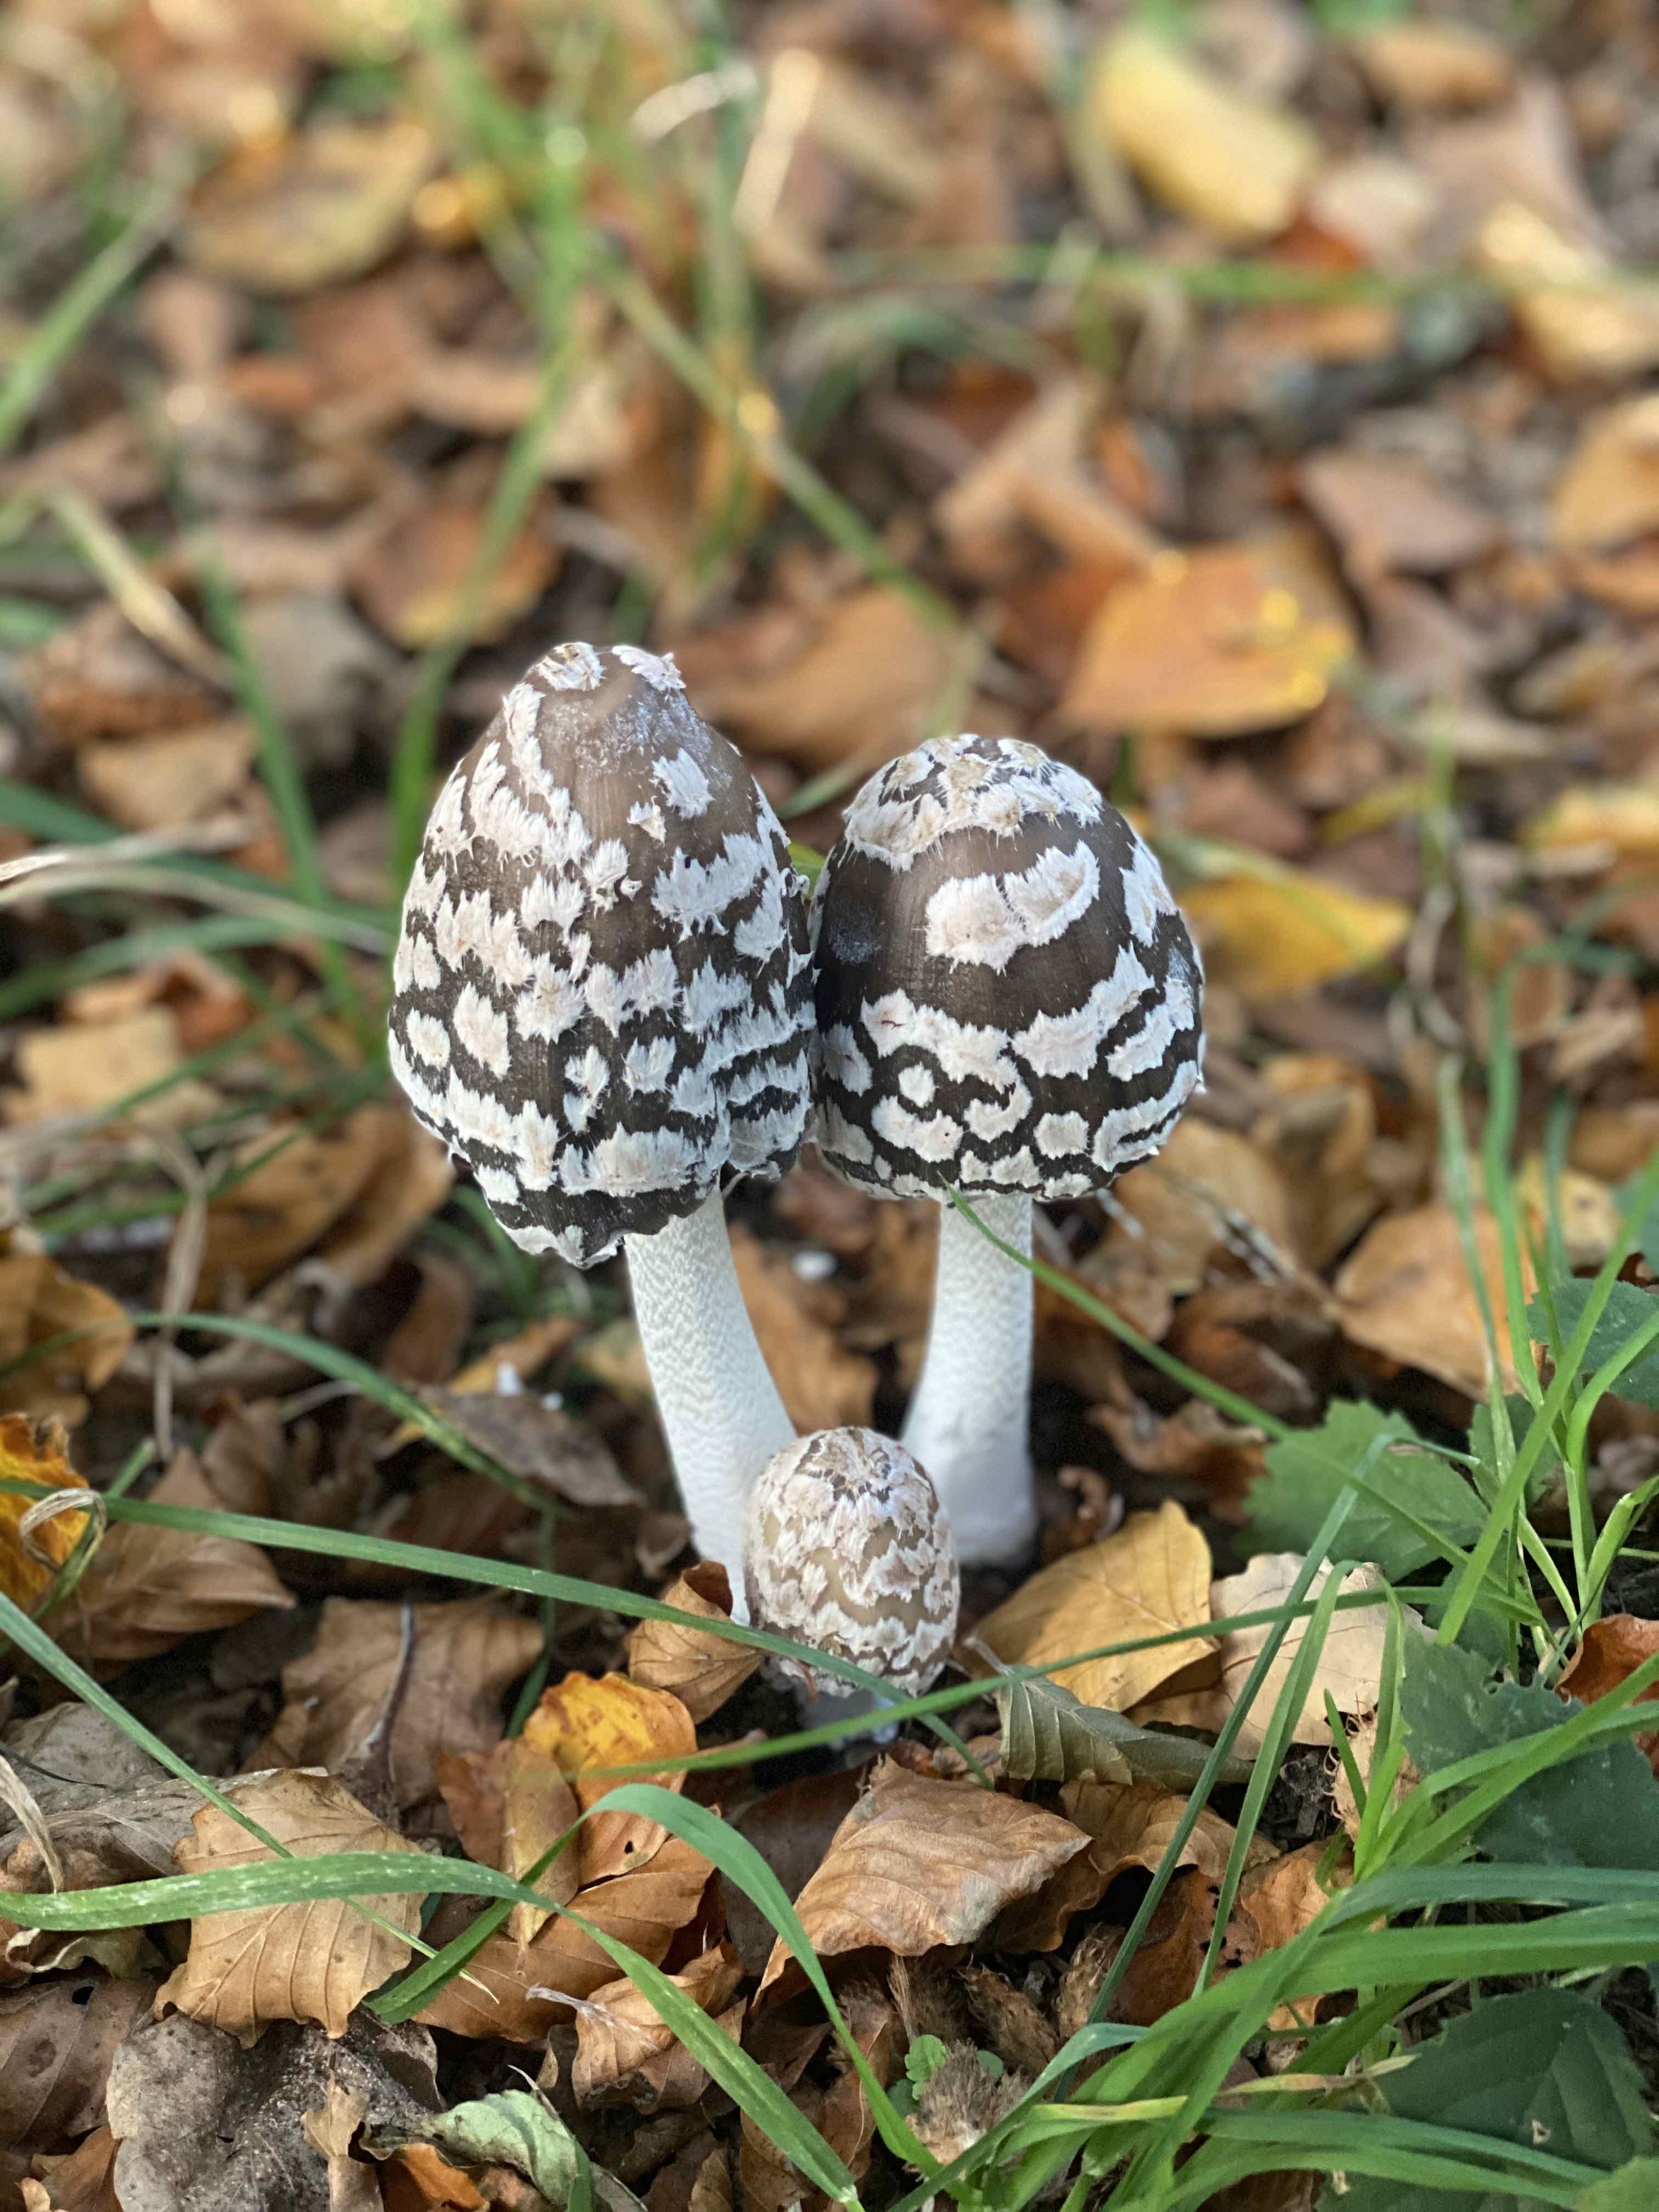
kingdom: Fungi
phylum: Basidiomycota
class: Agaricomycetes
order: Agaricales
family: Psathyrellaceae
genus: Coprinopsis
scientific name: Coprinopsis picacea
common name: skade-blækhat
